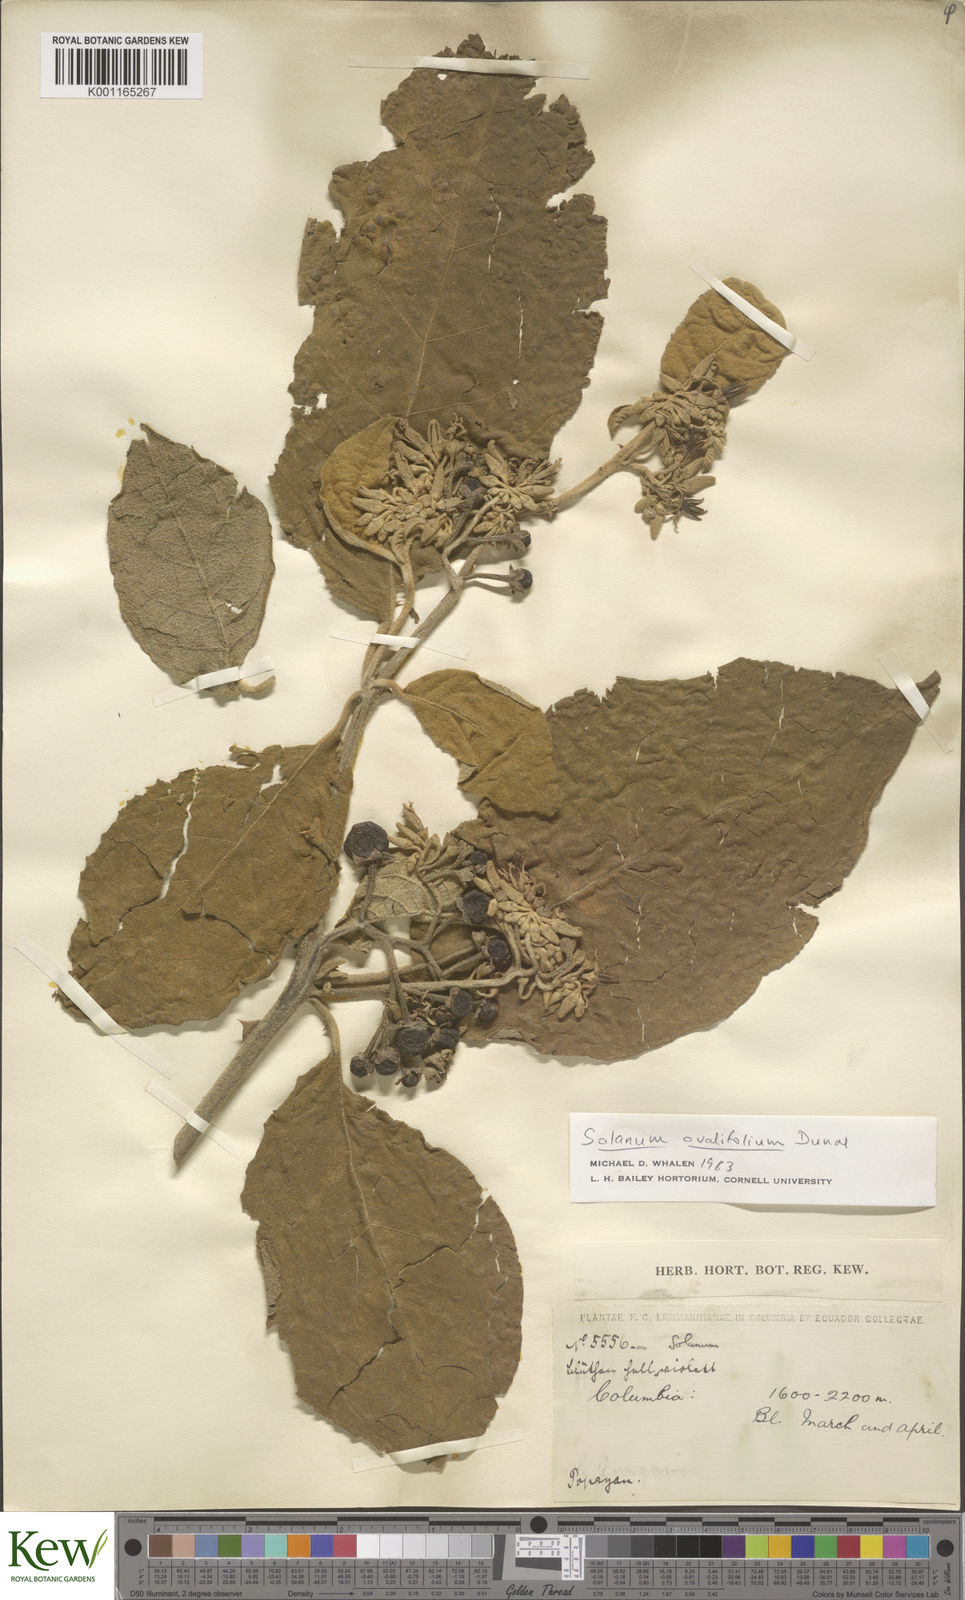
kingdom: Plantae
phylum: Tracheophyta
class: Magnoliopsida
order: Solanales
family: Solanaceae
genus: Solanum
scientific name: Solanum ovalifolium
